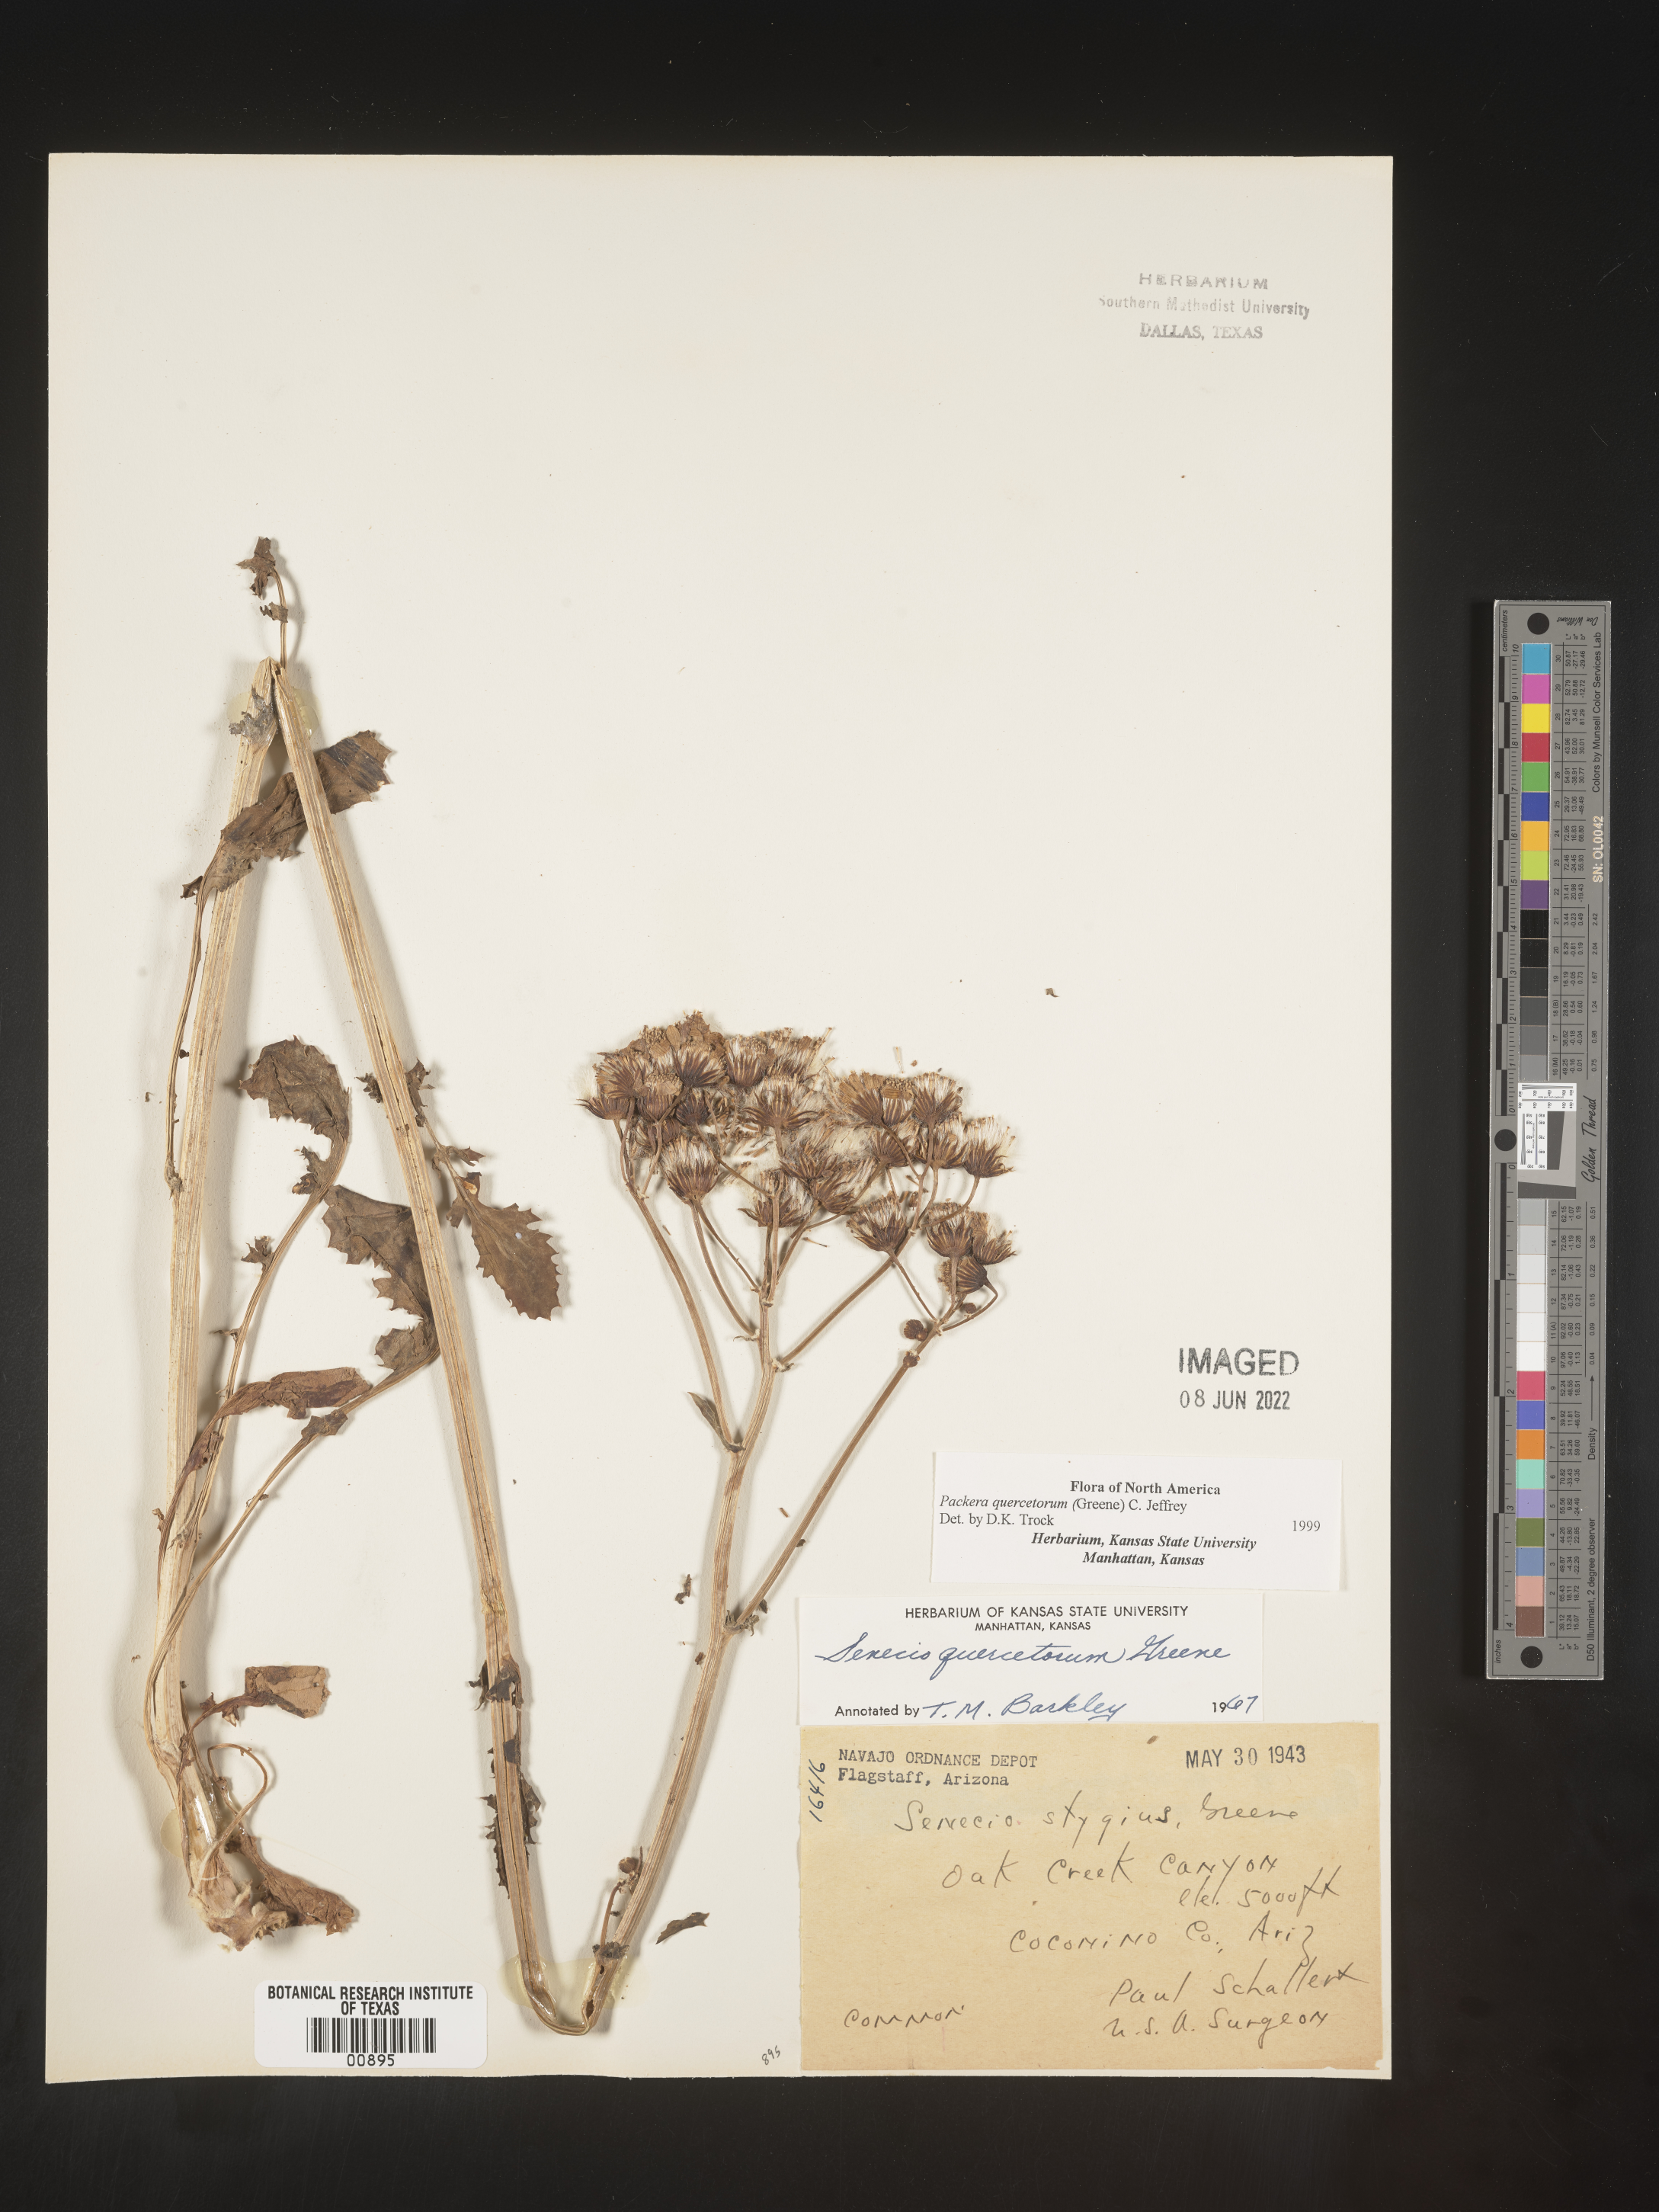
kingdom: Plantae
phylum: Tracheophyta
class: Magnoliopsida
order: Asterales
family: Asteraceae
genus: Packera
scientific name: Packera quercetorum
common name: Oak creek ragwort
